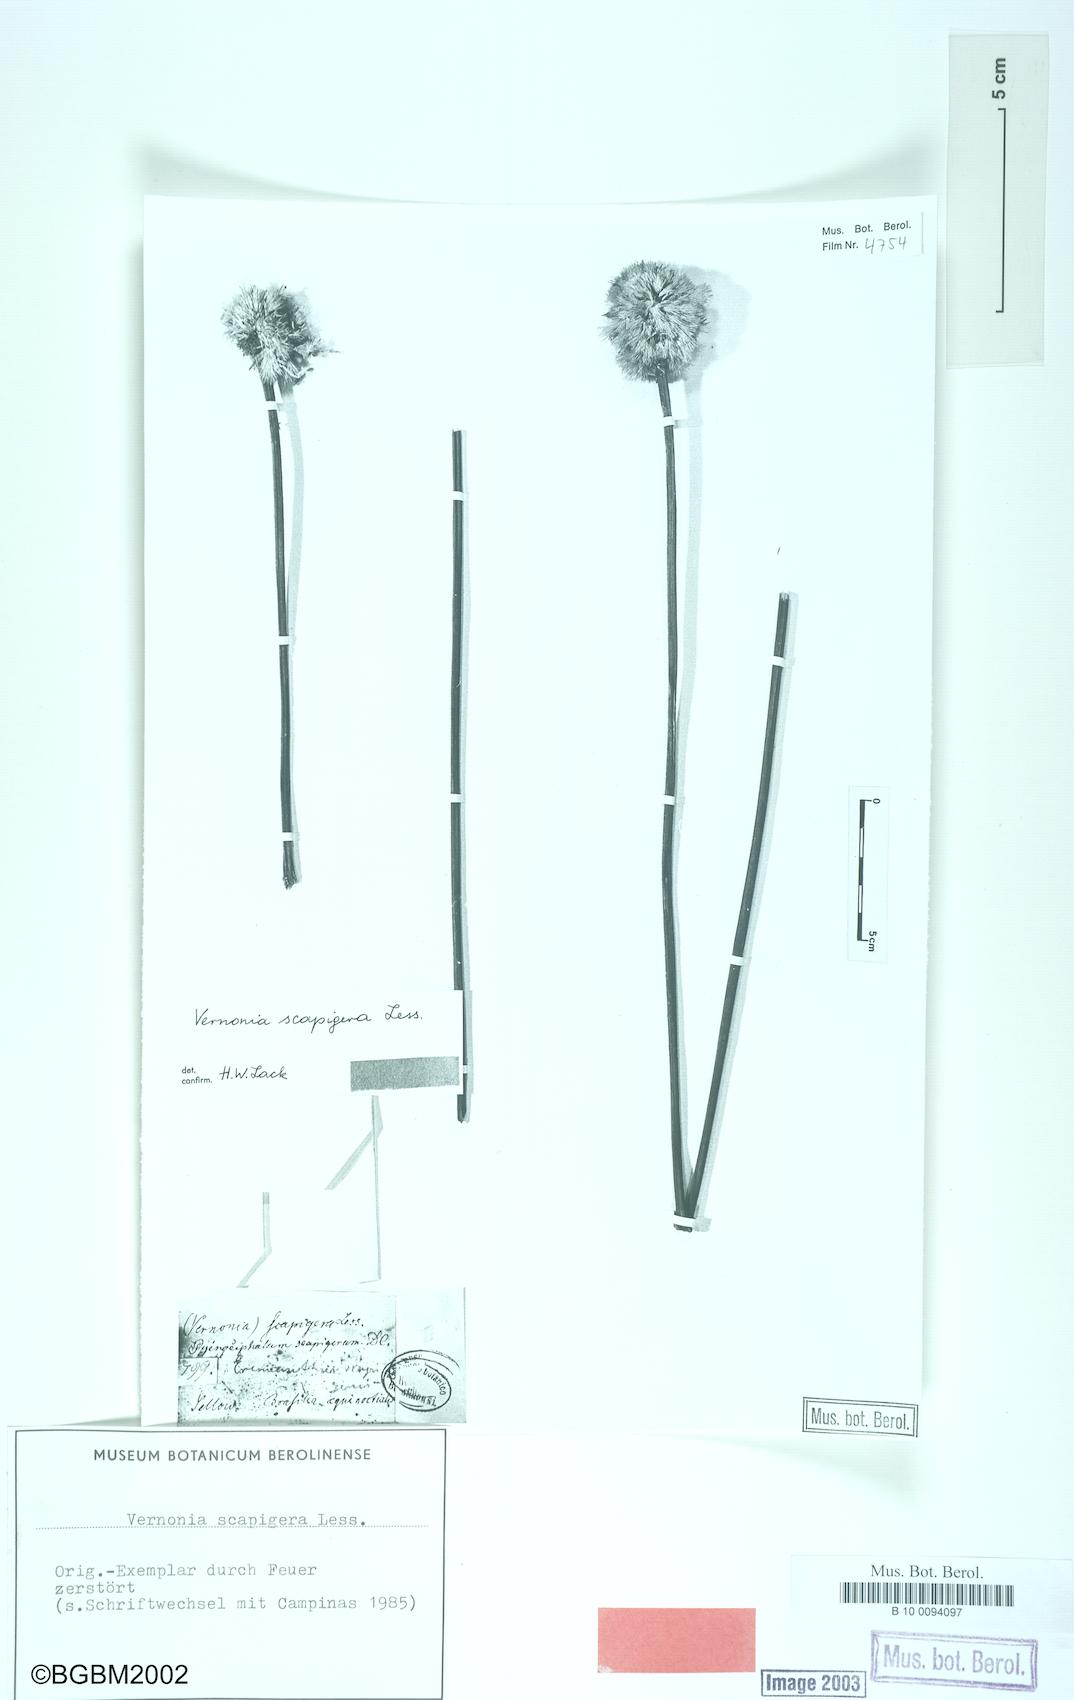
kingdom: Plantae
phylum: Tracheophyta
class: Magnoliopsida
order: Asterales
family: Asteraceae
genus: Chresta
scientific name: Chresta scapigera
